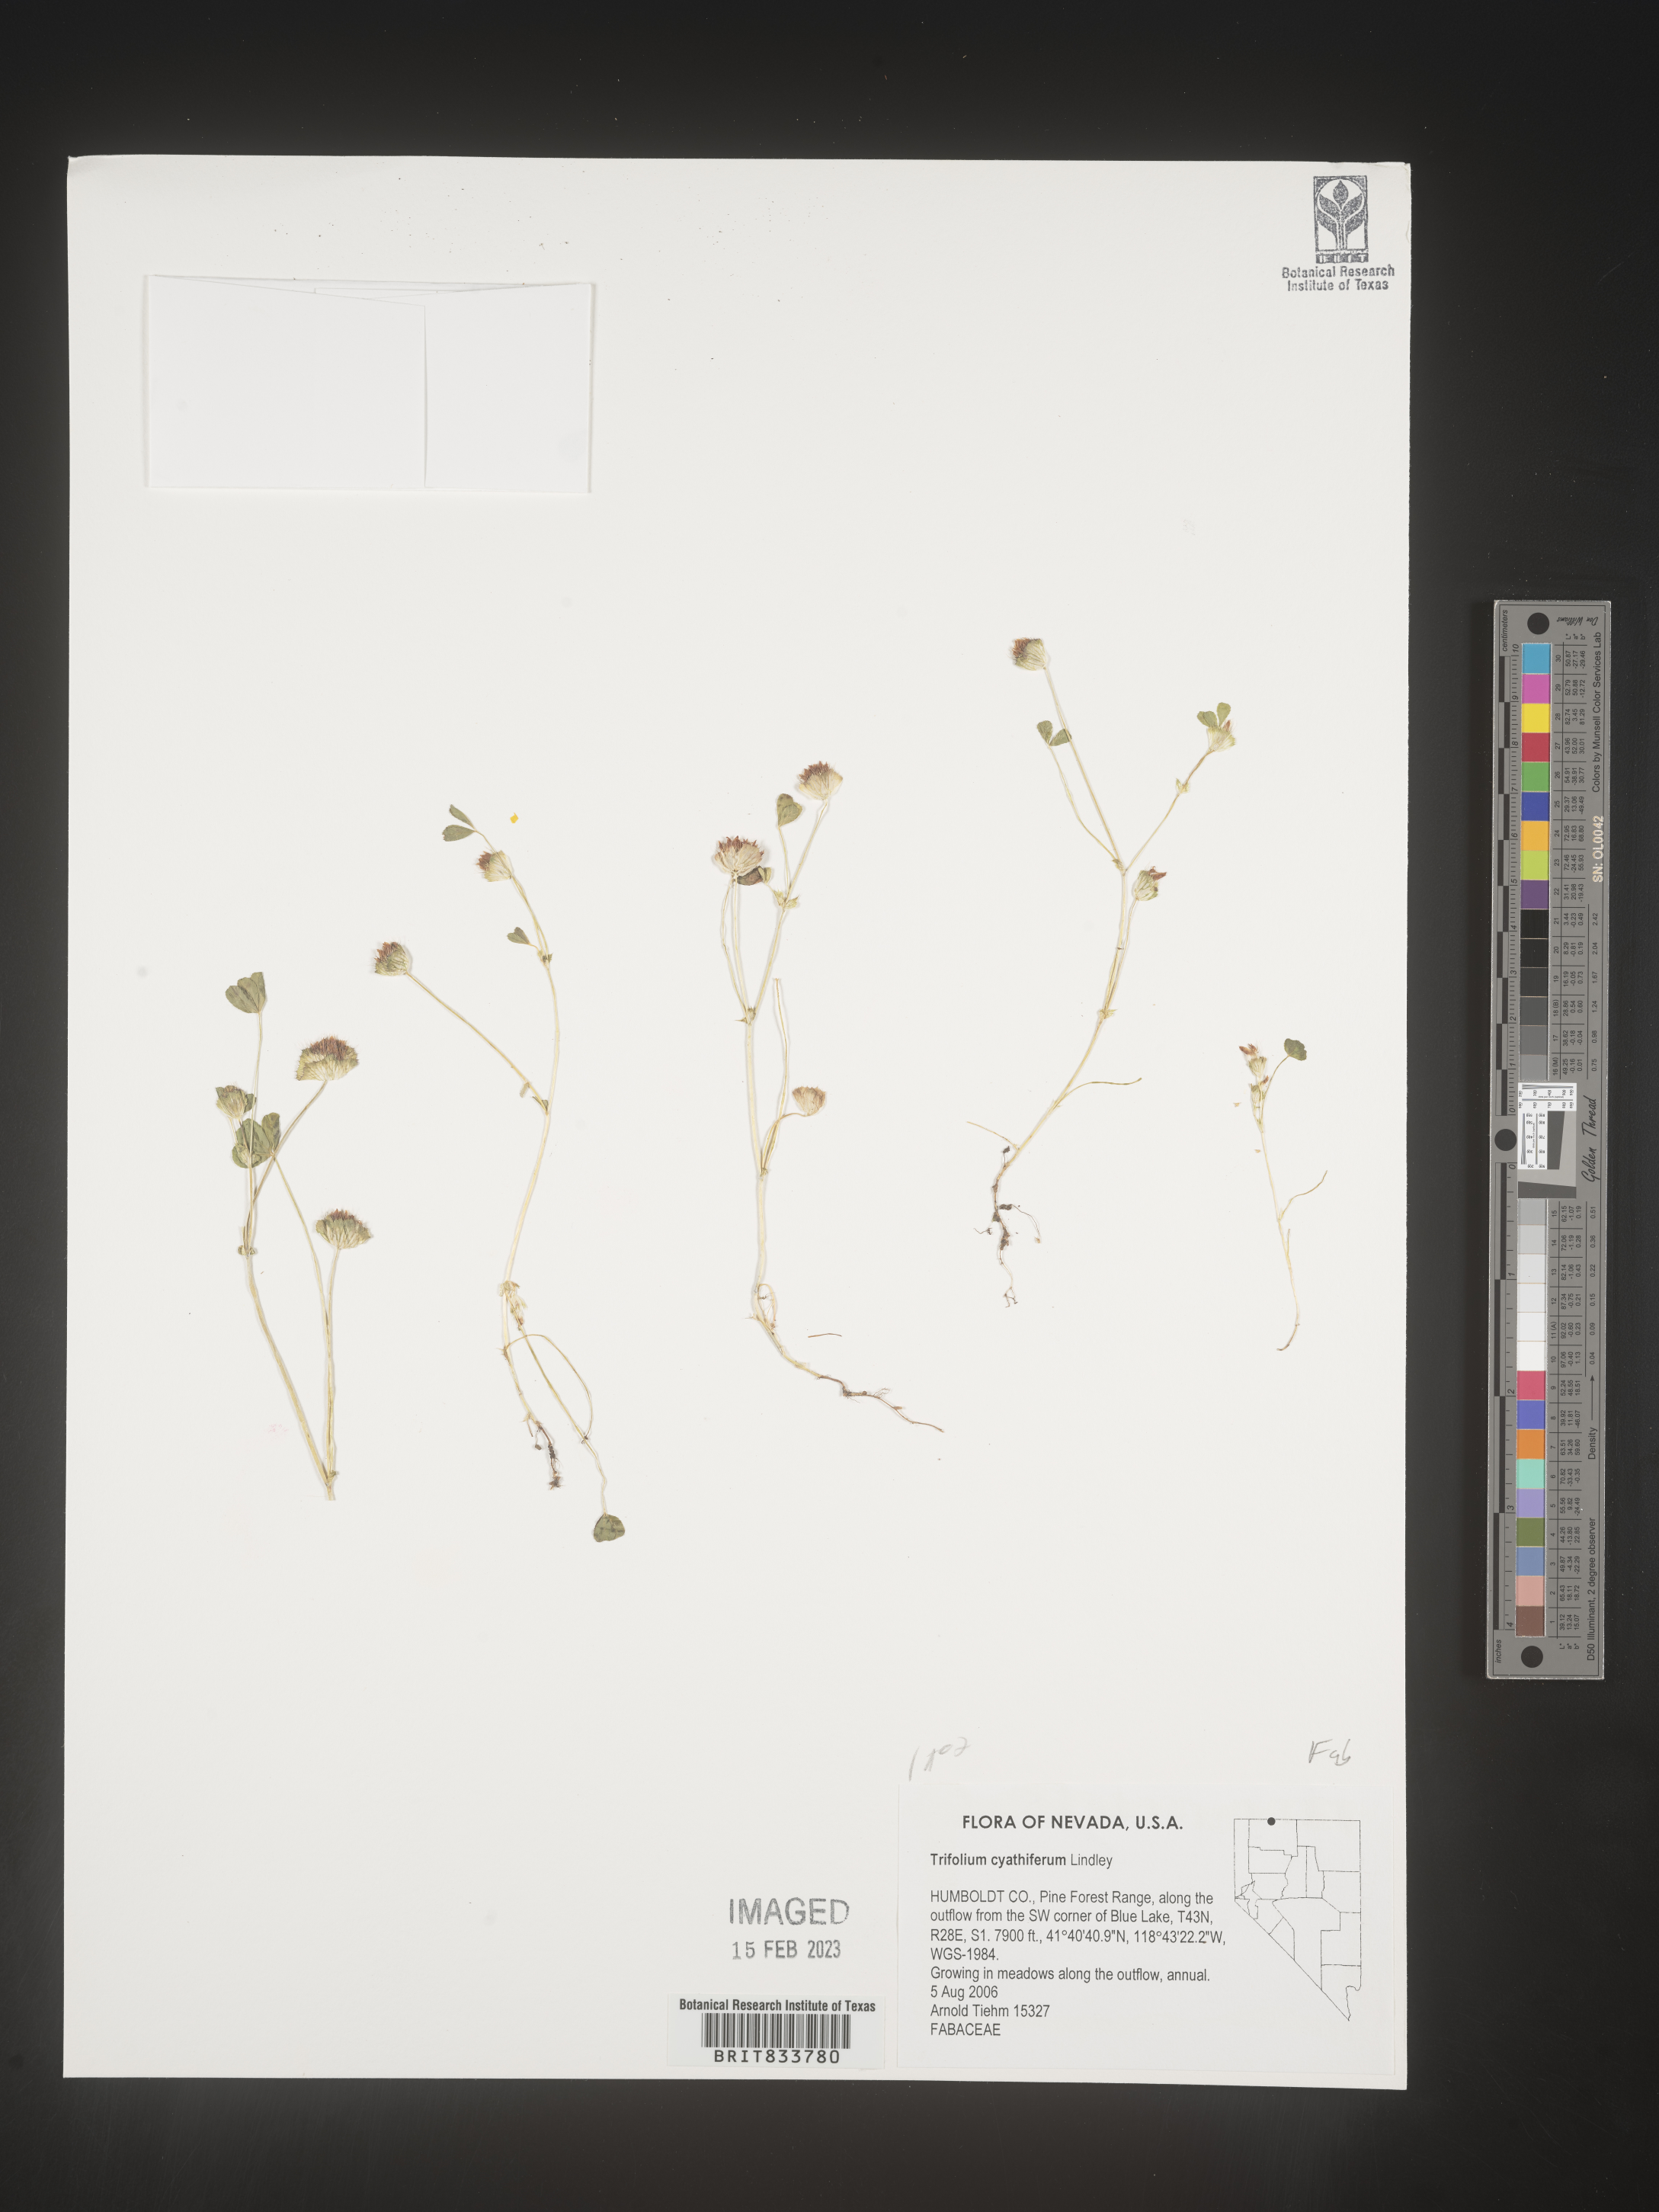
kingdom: Plantae
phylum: Tracheophyta
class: Magnoliopsida
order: Fabales
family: Fabaceae
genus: Trifolium
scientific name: Trifolium
